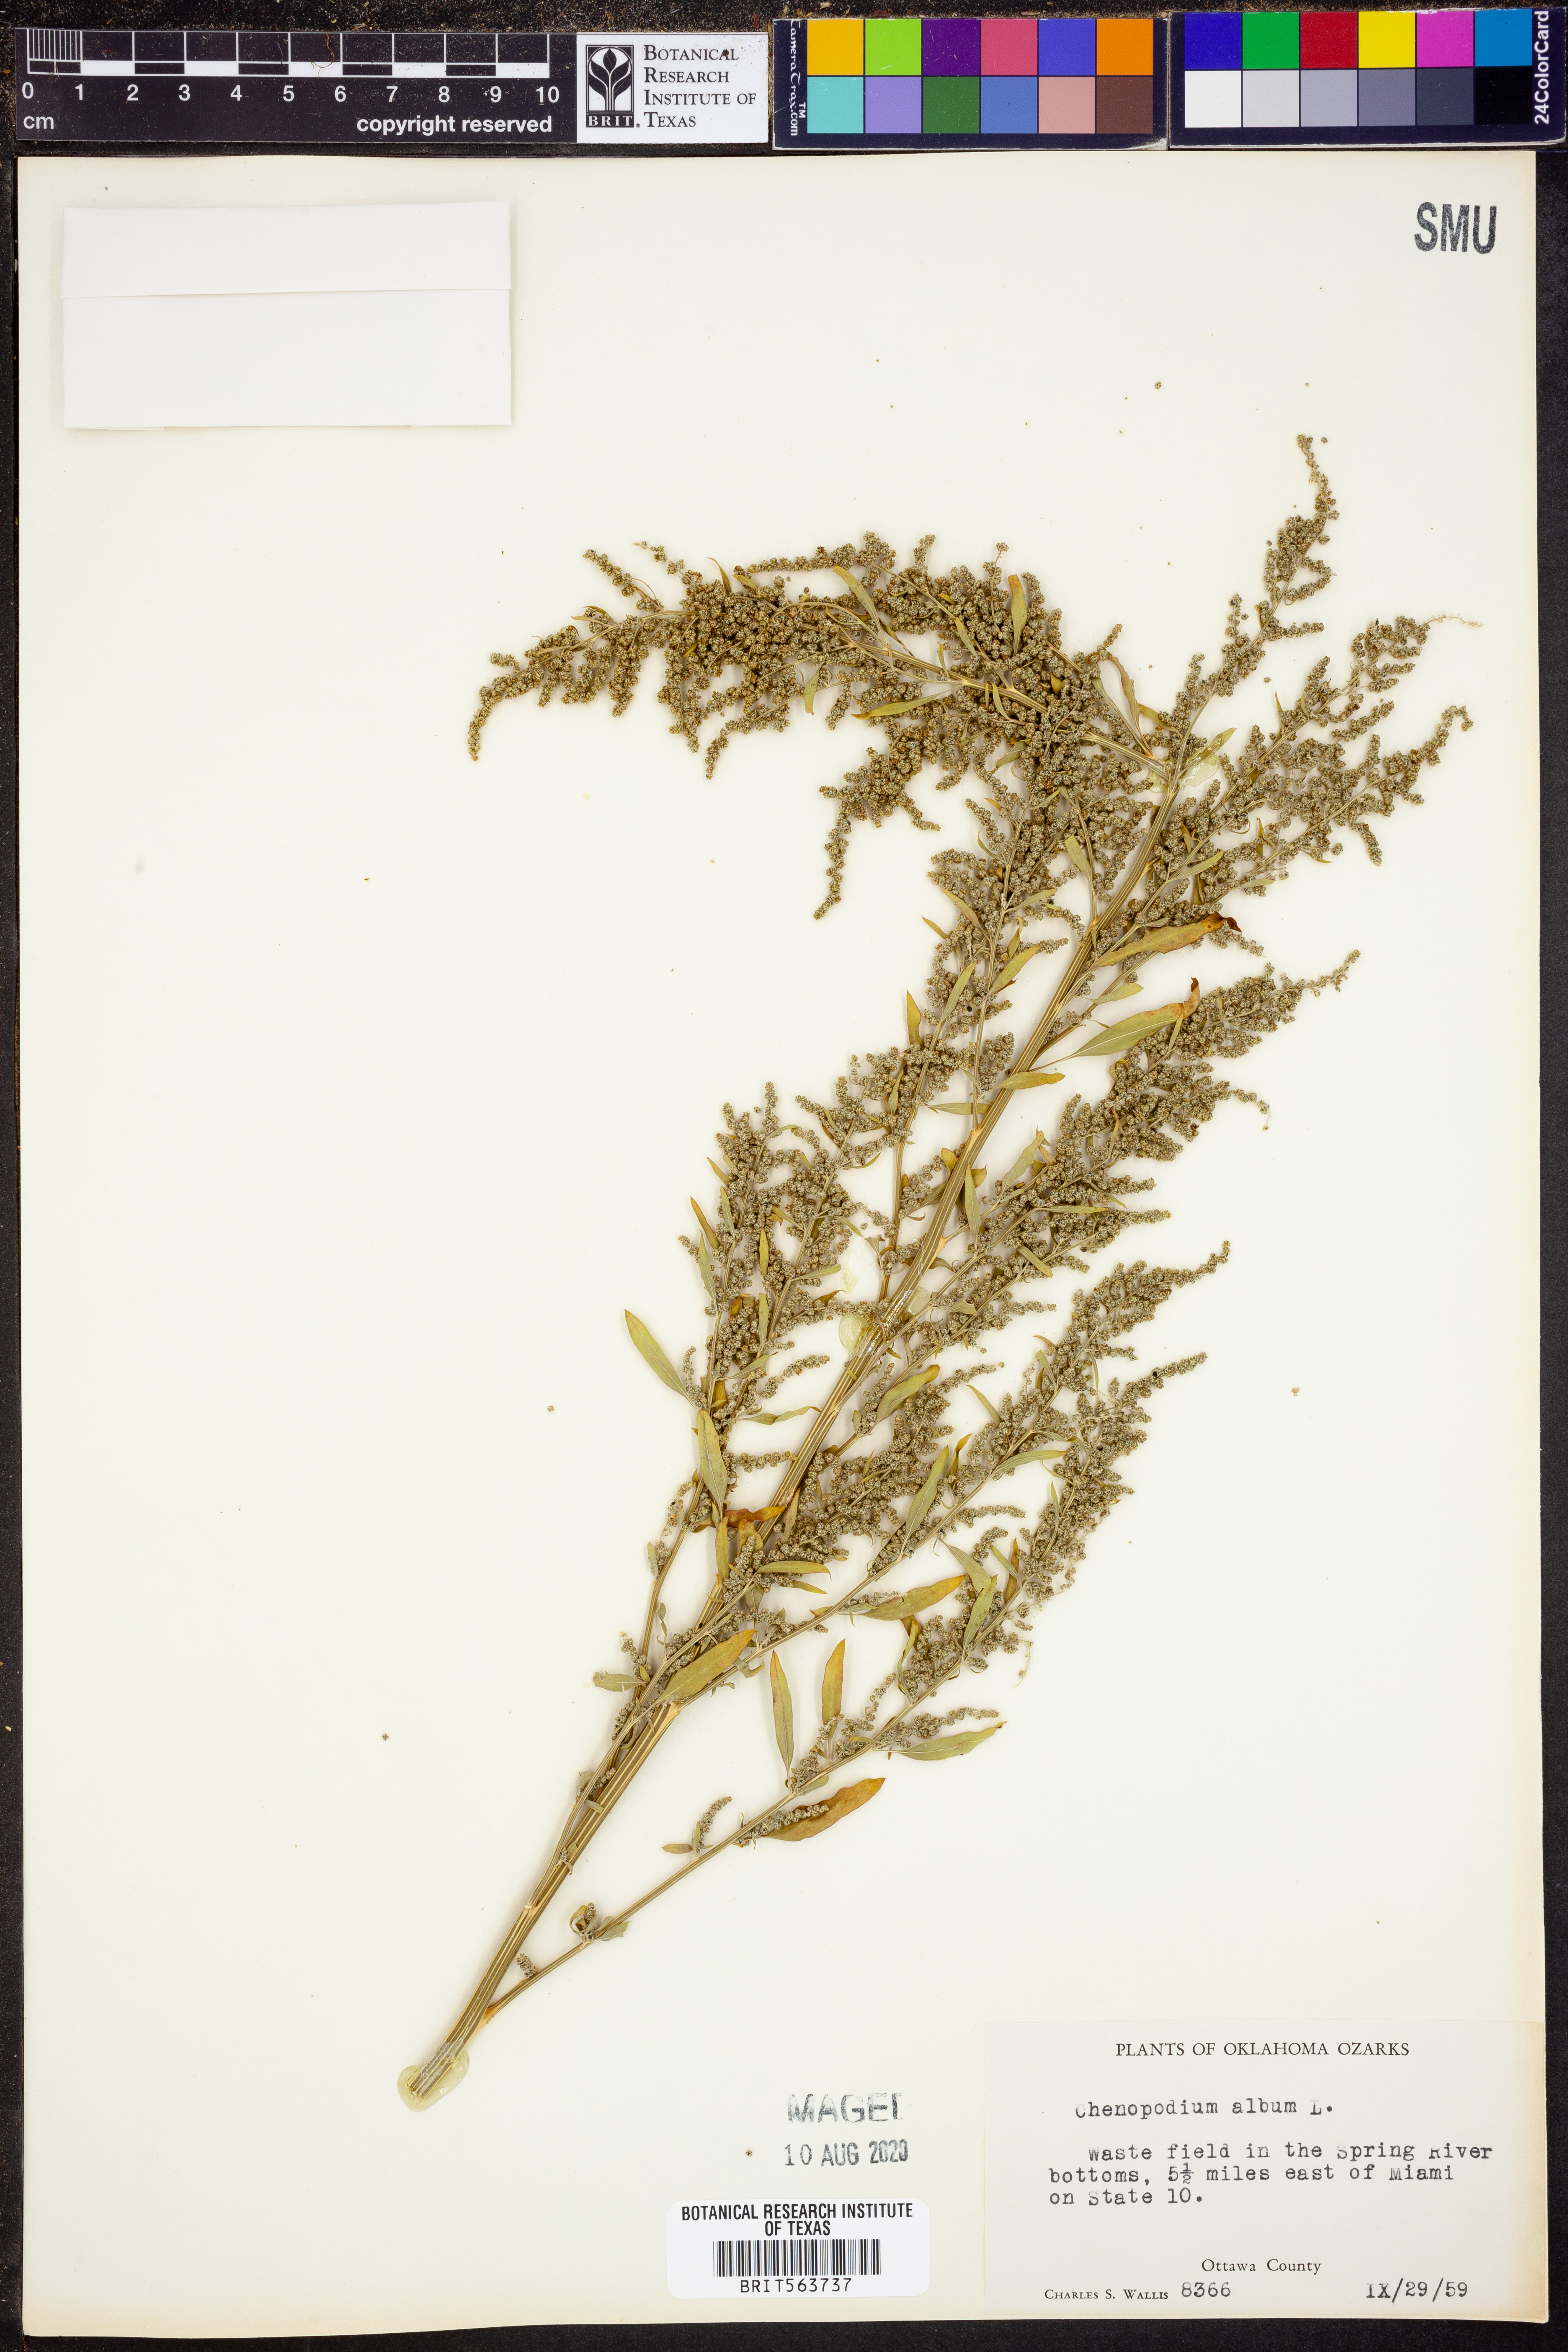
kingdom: Plantae
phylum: Tracheophyta
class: Magnoliopsida
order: Caryophyllales
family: Amaranthaceae
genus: Chenopodium
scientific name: Chenopodium album
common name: Fat-hen
